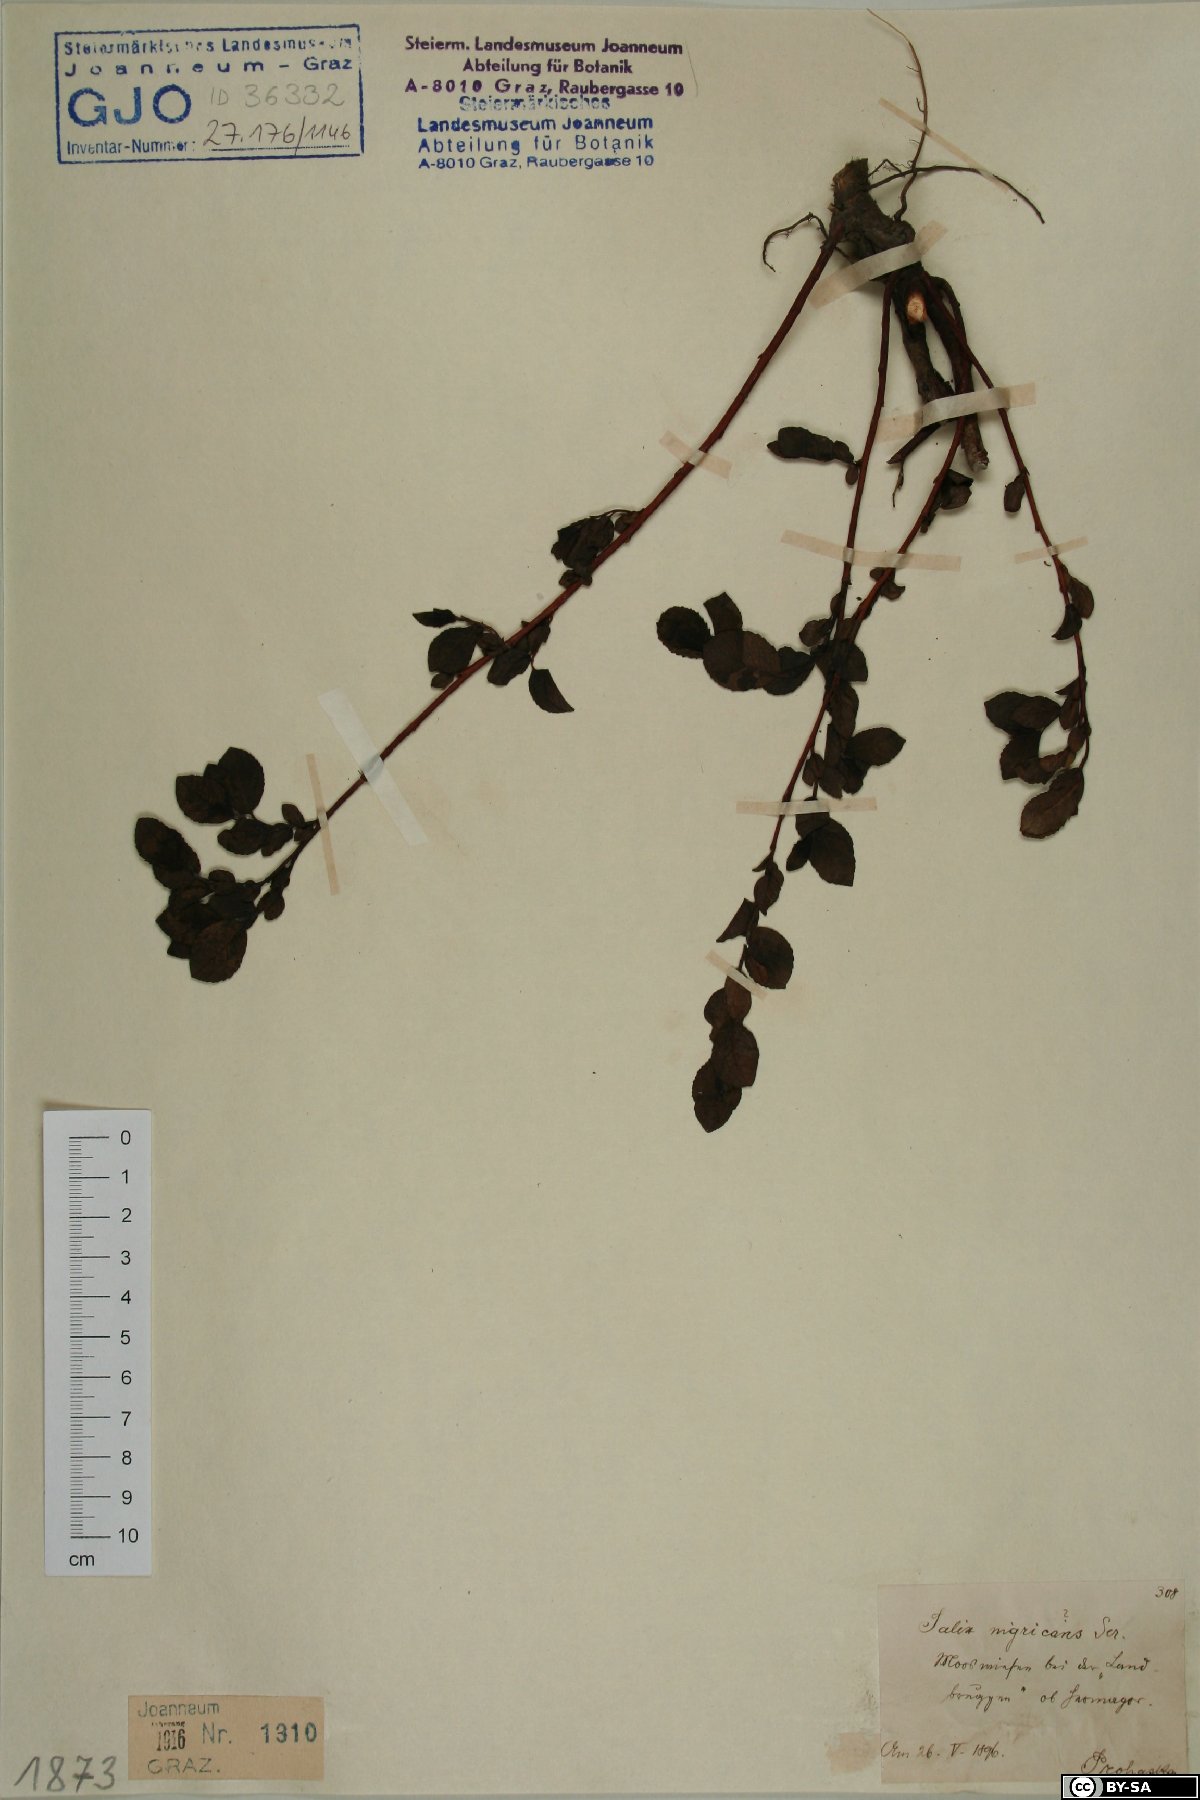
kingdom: Plantae
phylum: Tracheophyta
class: Magnoliopsida
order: Malpighiales
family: Salicaceae
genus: Salix
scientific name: Salix myrsinifolia
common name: Dark-leaved willow
